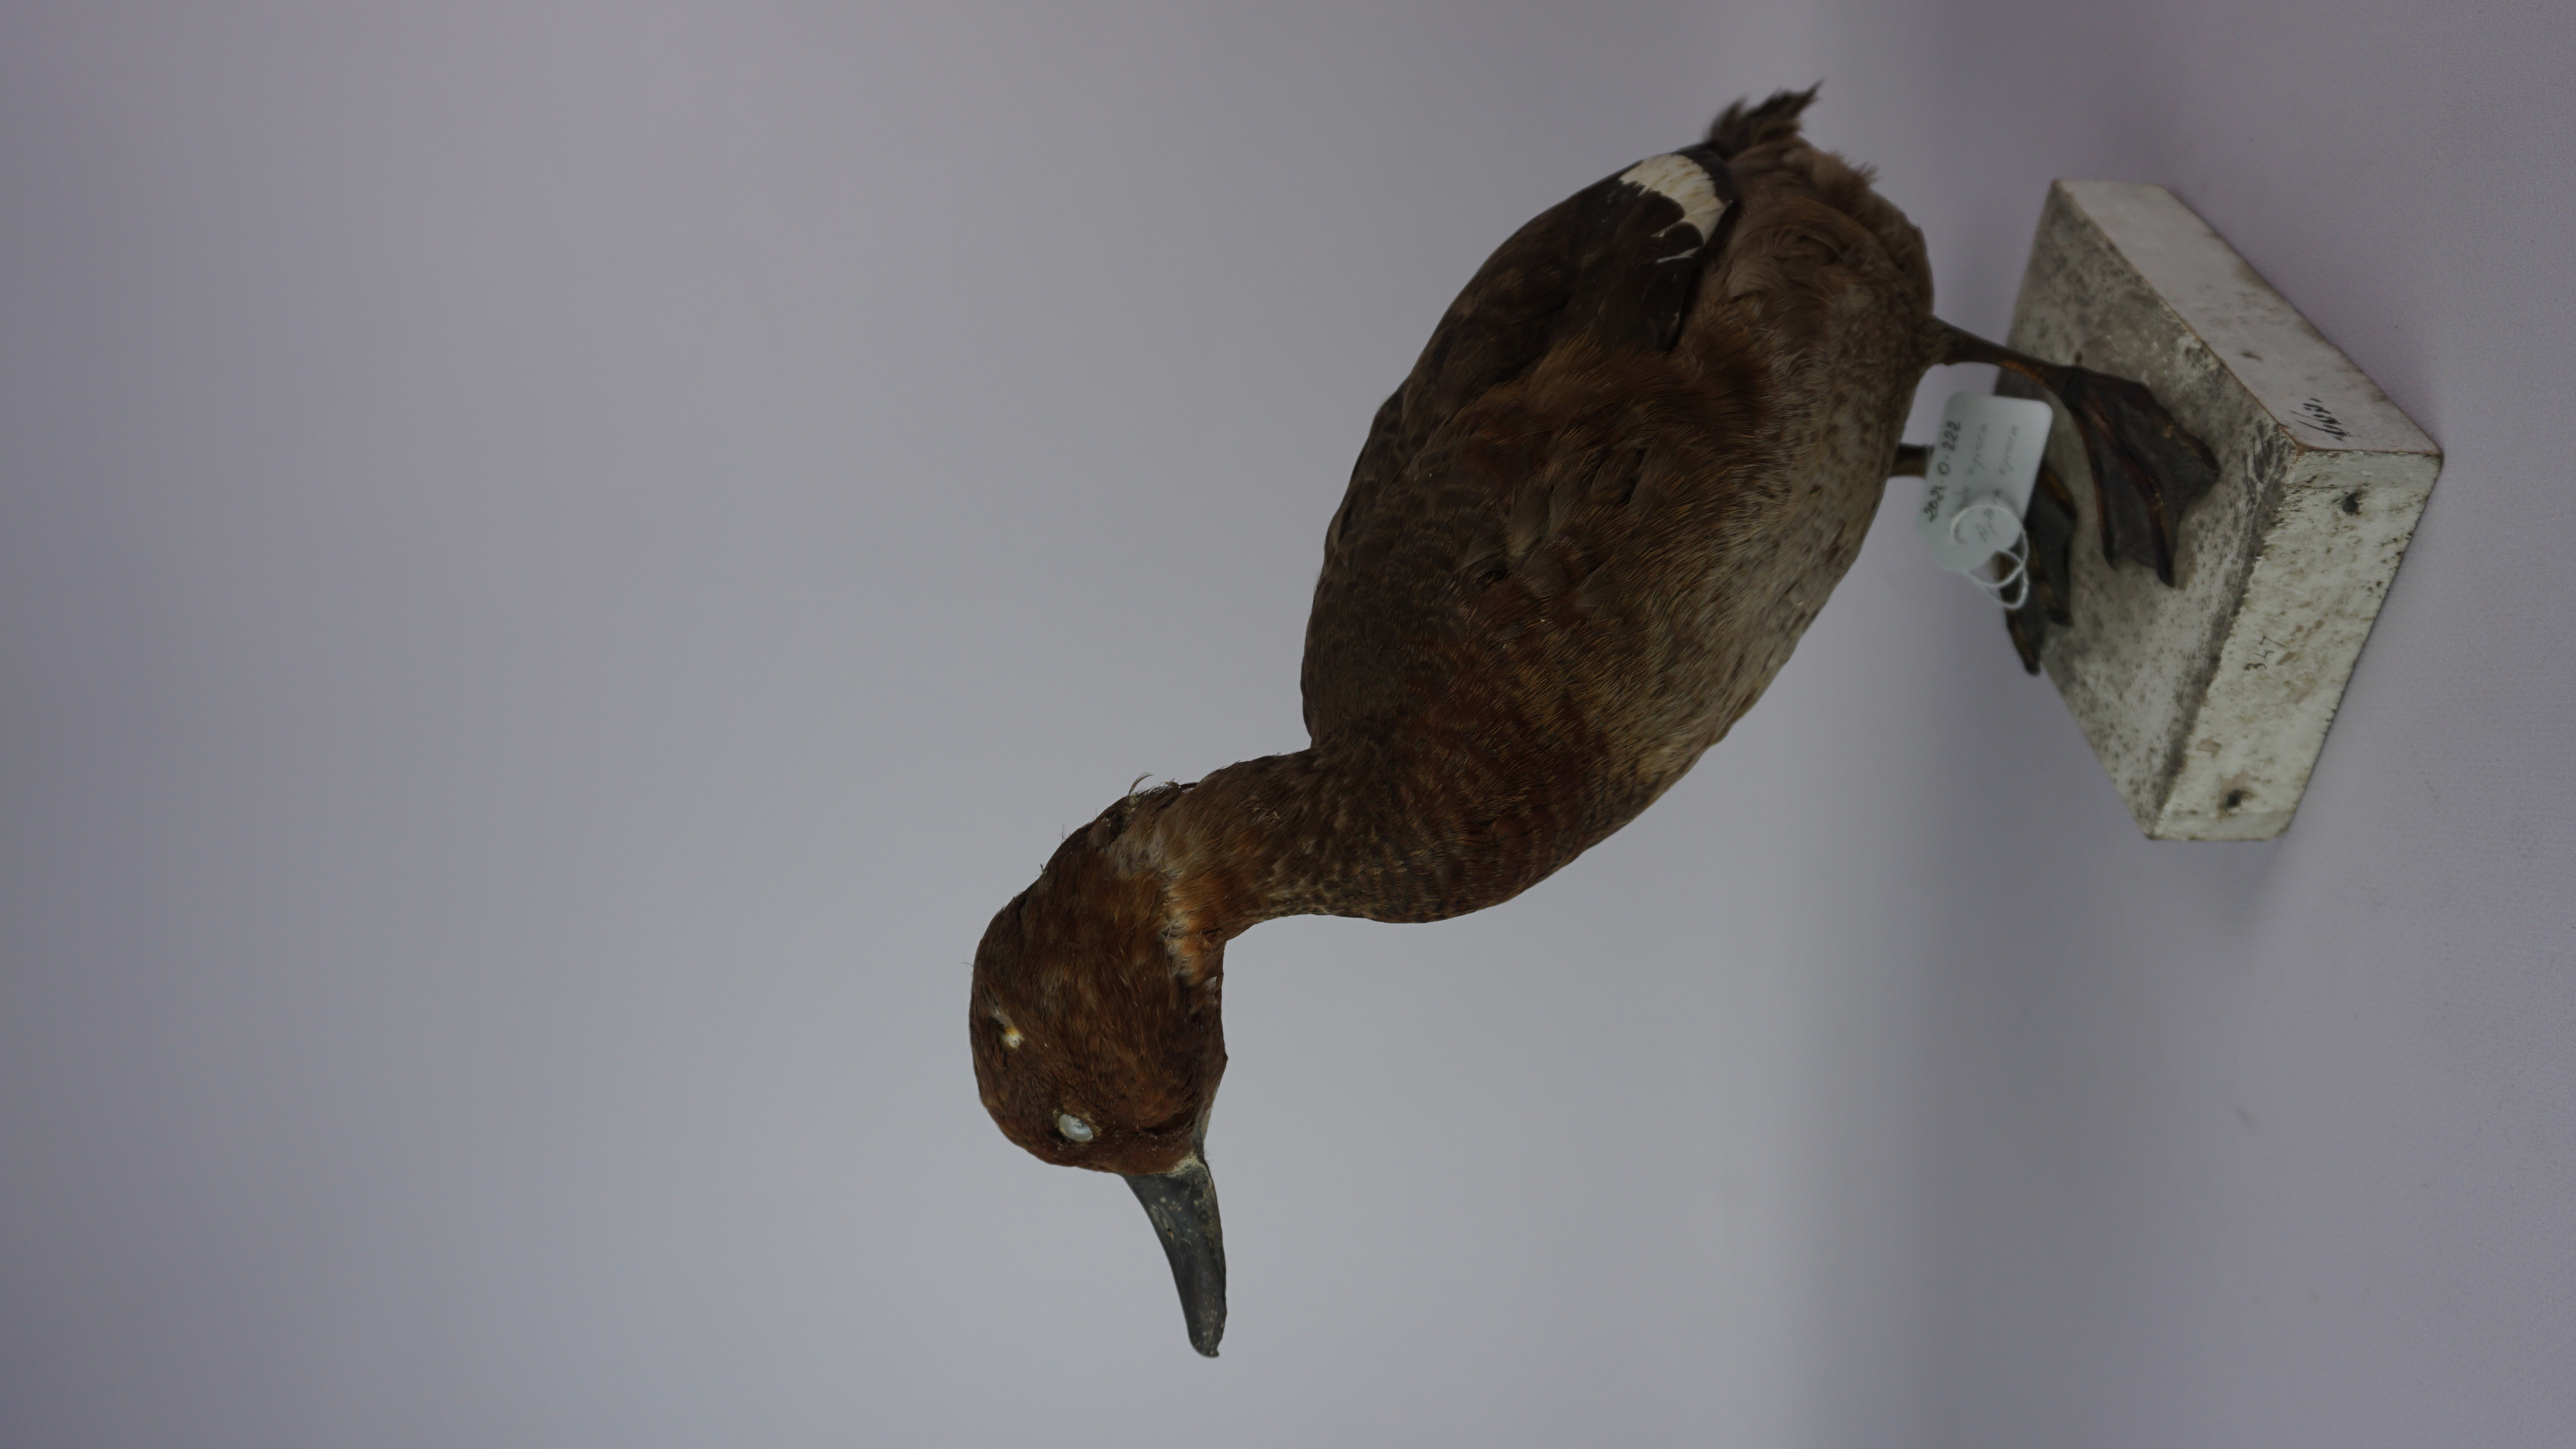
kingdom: Animalia
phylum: Chordata
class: Aves
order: Anseriformes
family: Anatidae
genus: Aythya
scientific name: Aythya nyroca
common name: Ferruginous duck
